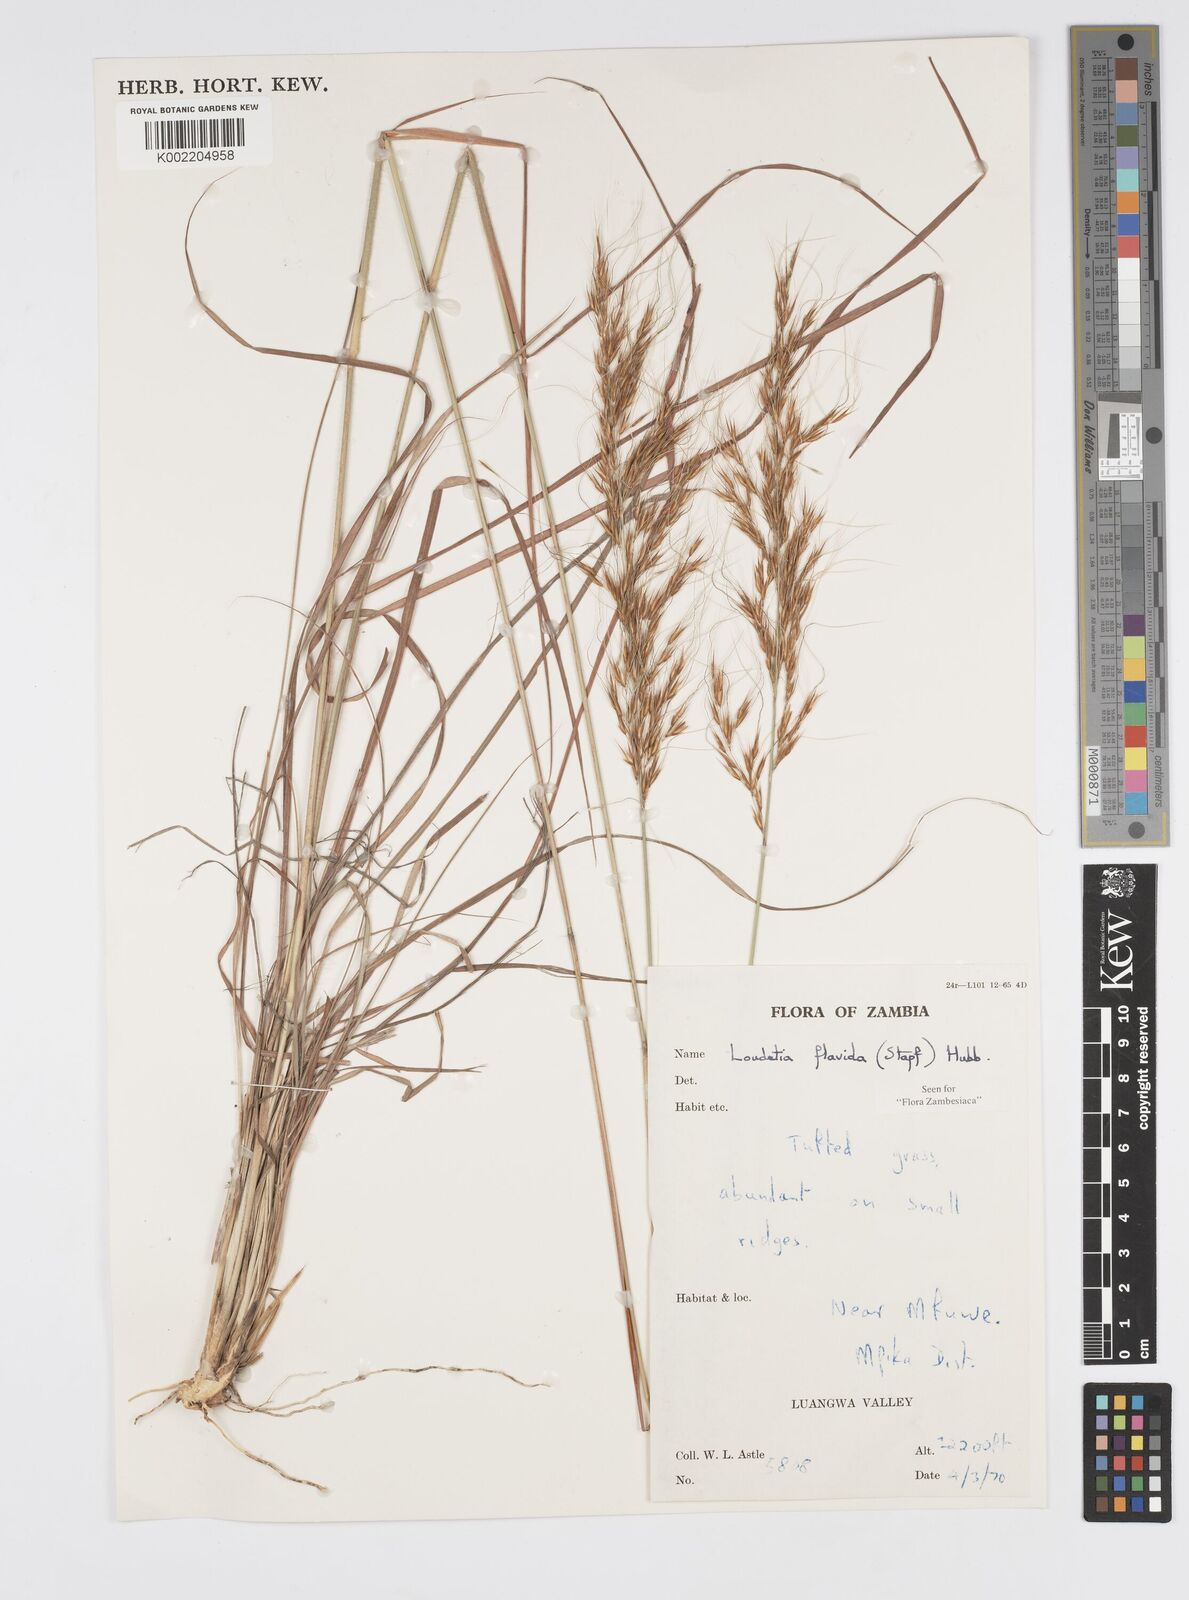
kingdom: Plantae
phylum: Tracheophyta
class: Liliopsida
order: Poales
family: Poaceae
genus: Loudetia
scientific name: Loudetia flavida
